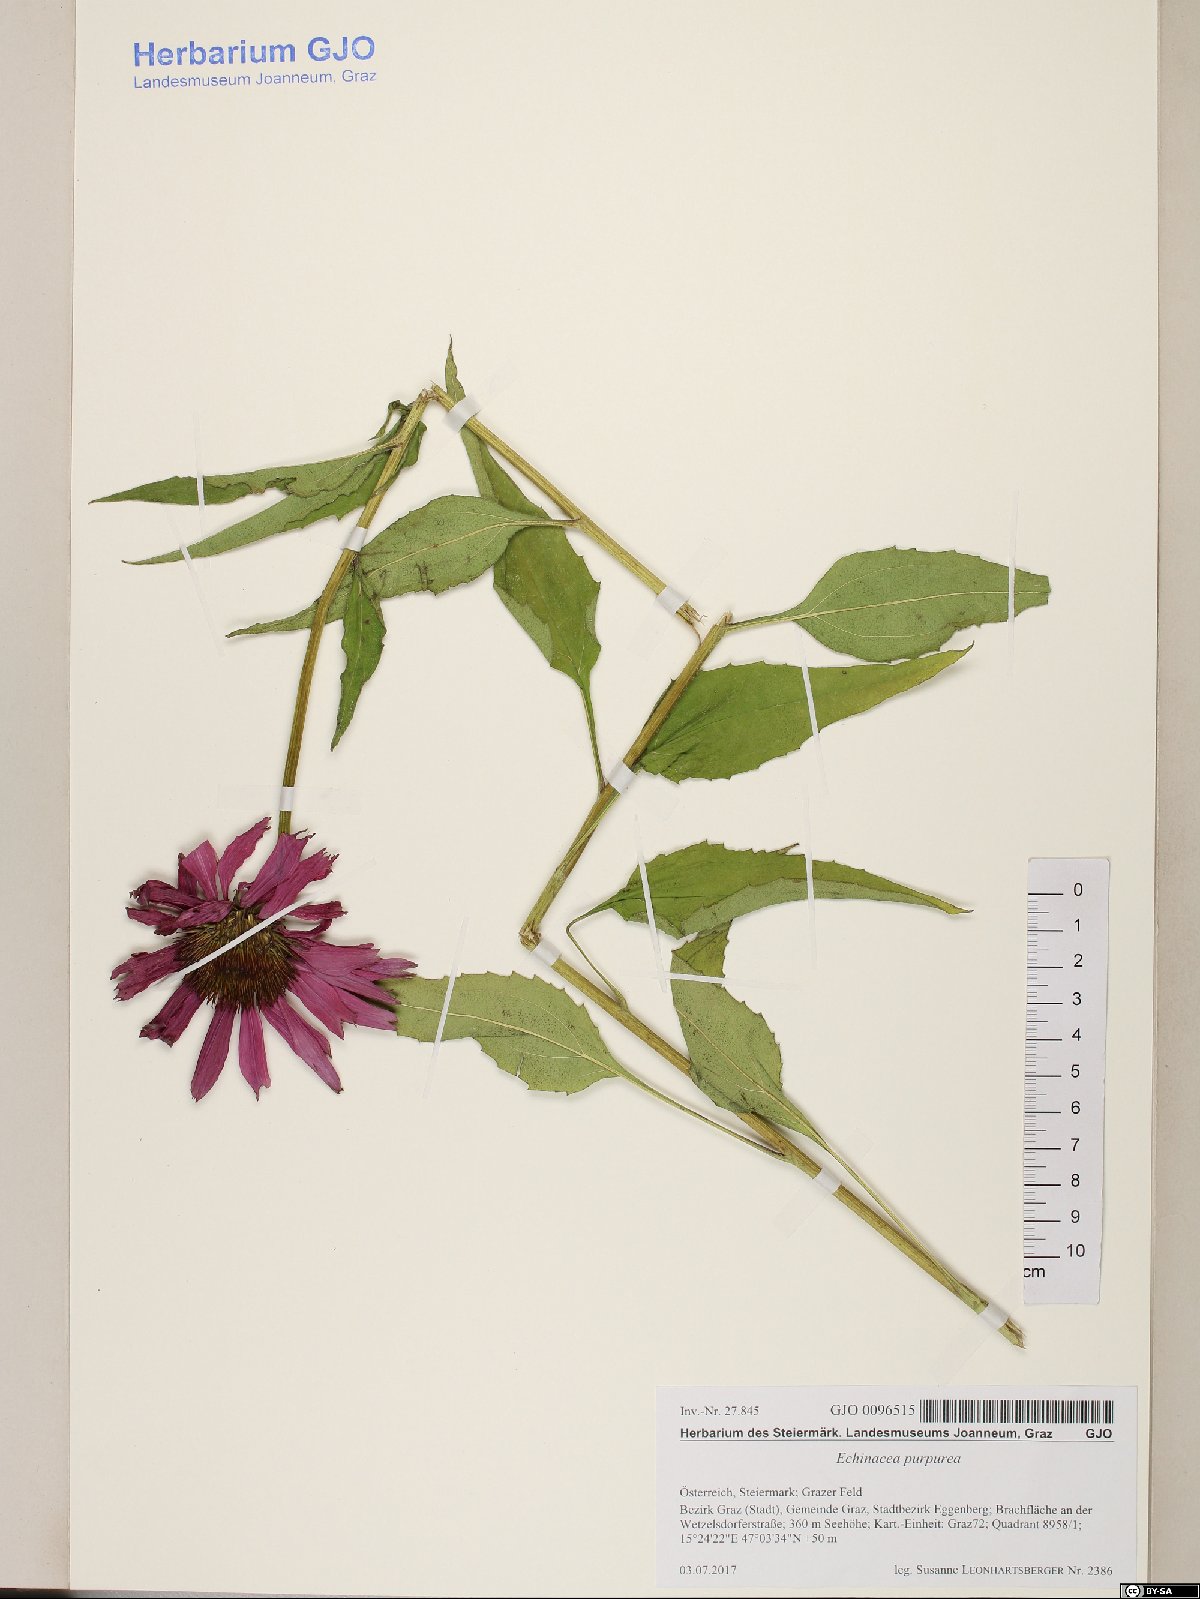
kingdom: Plantae
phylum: Tracheophyta
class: Magnoliopsida
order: Asterales
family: Asteraceae
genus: Echinacea
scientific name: Echinacea purpurea
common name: Broad-leaved purple coneflower
